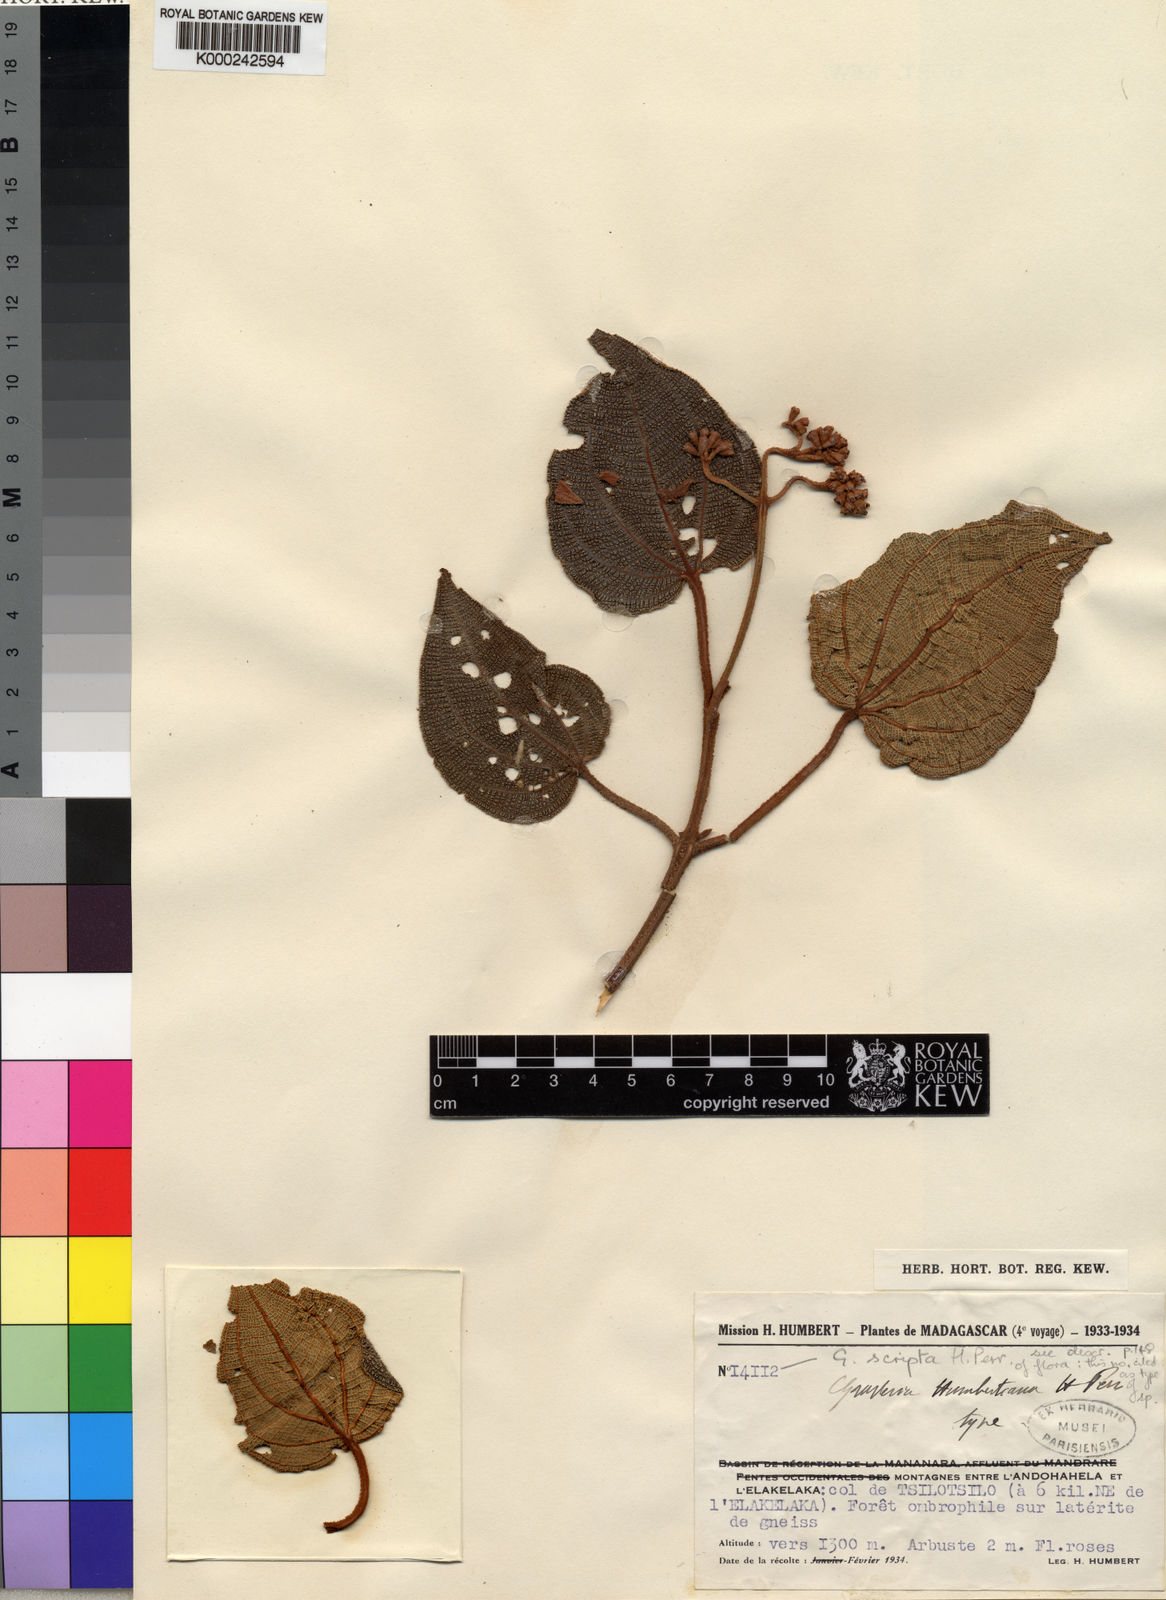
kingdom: Plantae
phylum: Tracheophyta
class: Magnoliopsida
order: Myrtales
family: Melastomataceae
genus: Gravesia
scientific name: Gravesia scripta
